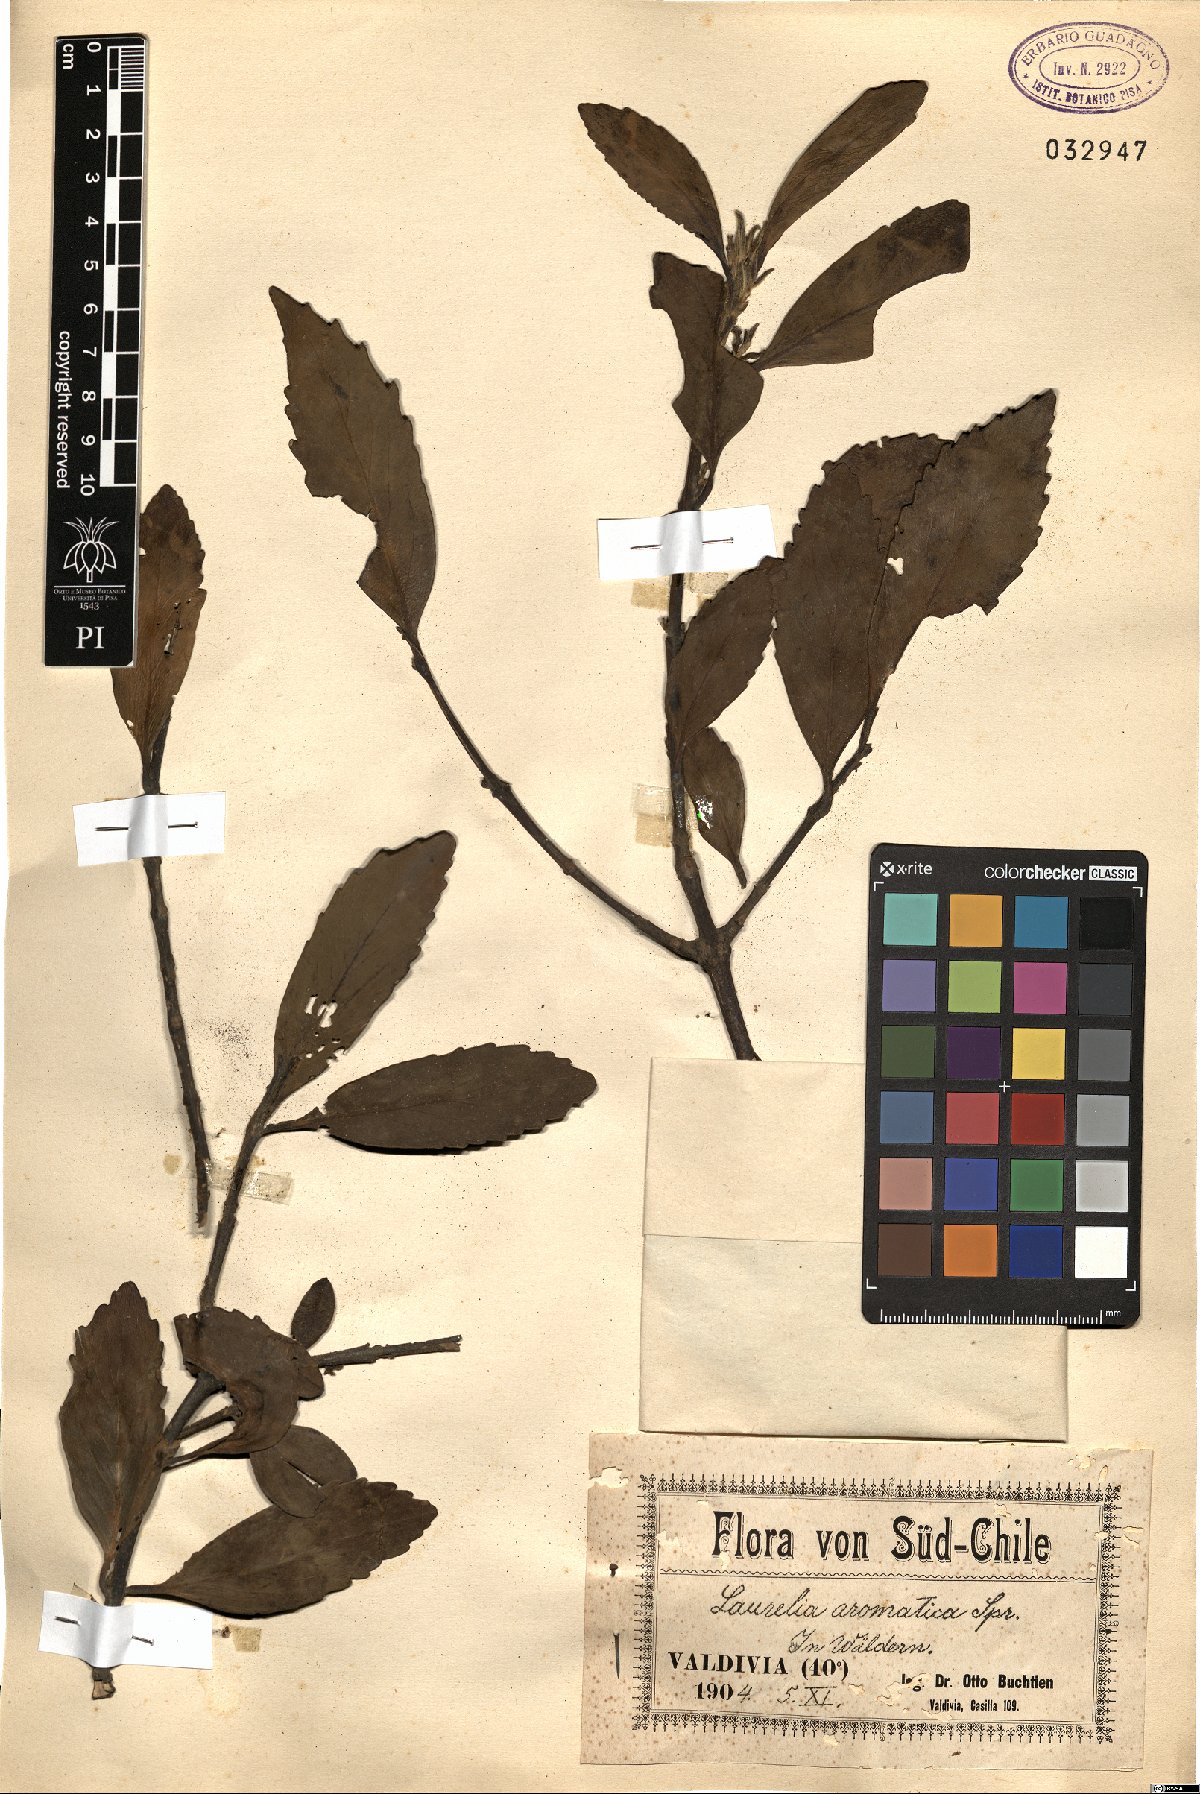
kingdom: Plantae
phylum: Tracheophyta
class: Magnoliopsida
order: Laurales
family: Atherospermataceae
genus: Laurelia
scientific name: Laurelia sempervirens
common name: Chilean laurel
